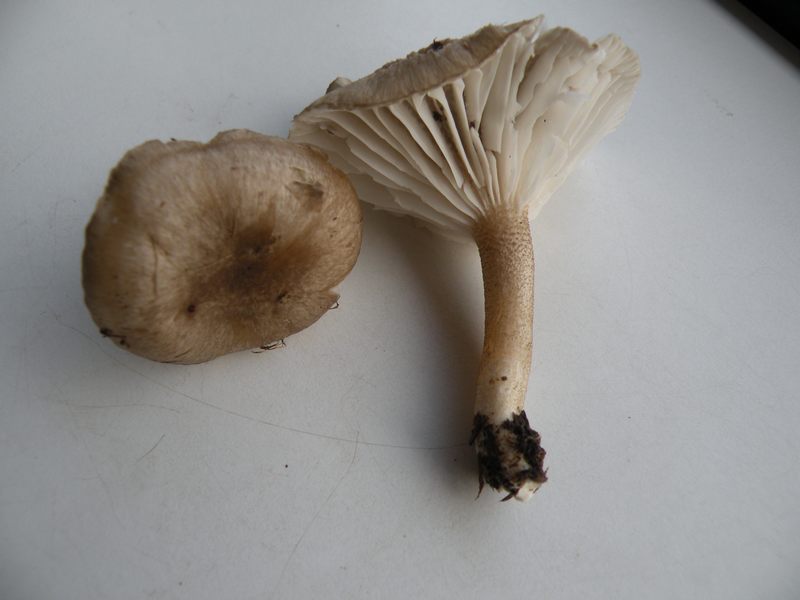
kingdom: Fungi
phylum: Basidiomycota
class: Agaricomycetes
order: Agaricales
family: Hygrophoraceae
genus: Hygrophorus
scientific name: Hygrophorus pustulatus
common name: mørkprikket sneglehat
